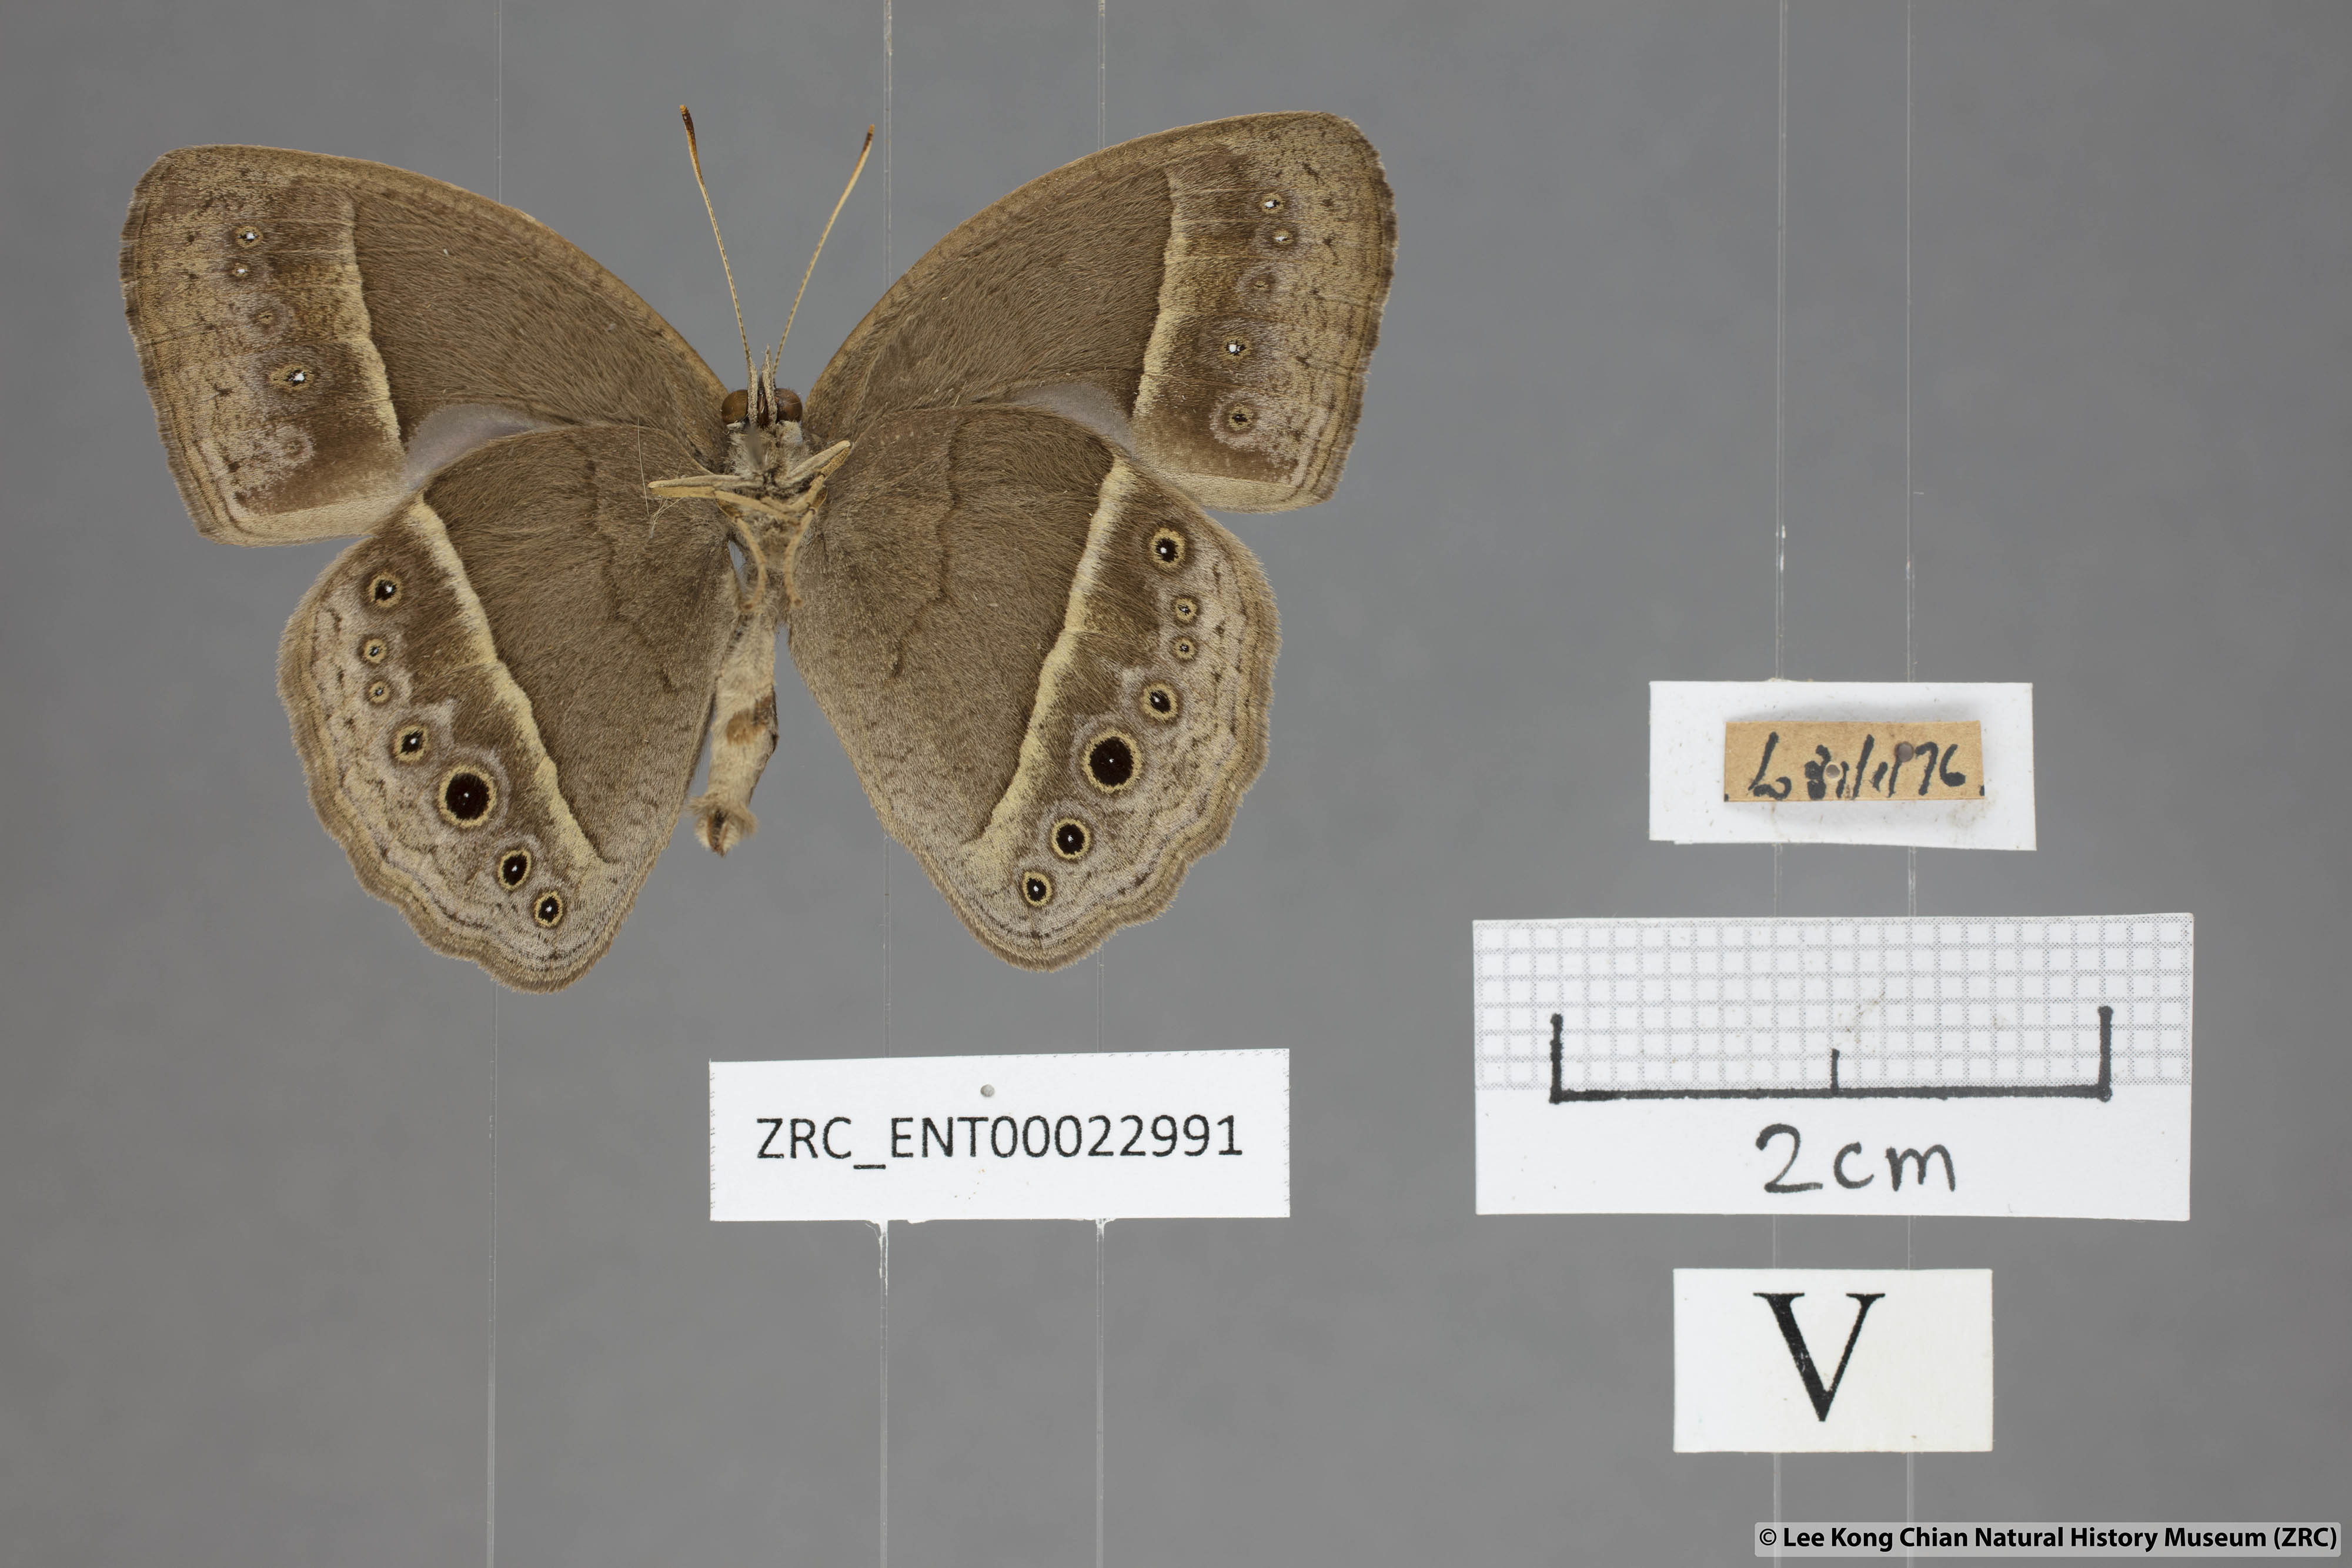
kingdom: Animalia
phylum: Arthropoda
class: Insecta
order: Lepidoptera
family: Nymphalidae
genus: Mycalesis
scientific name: Mycalesis perseoides
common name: Burmese bushbrown
